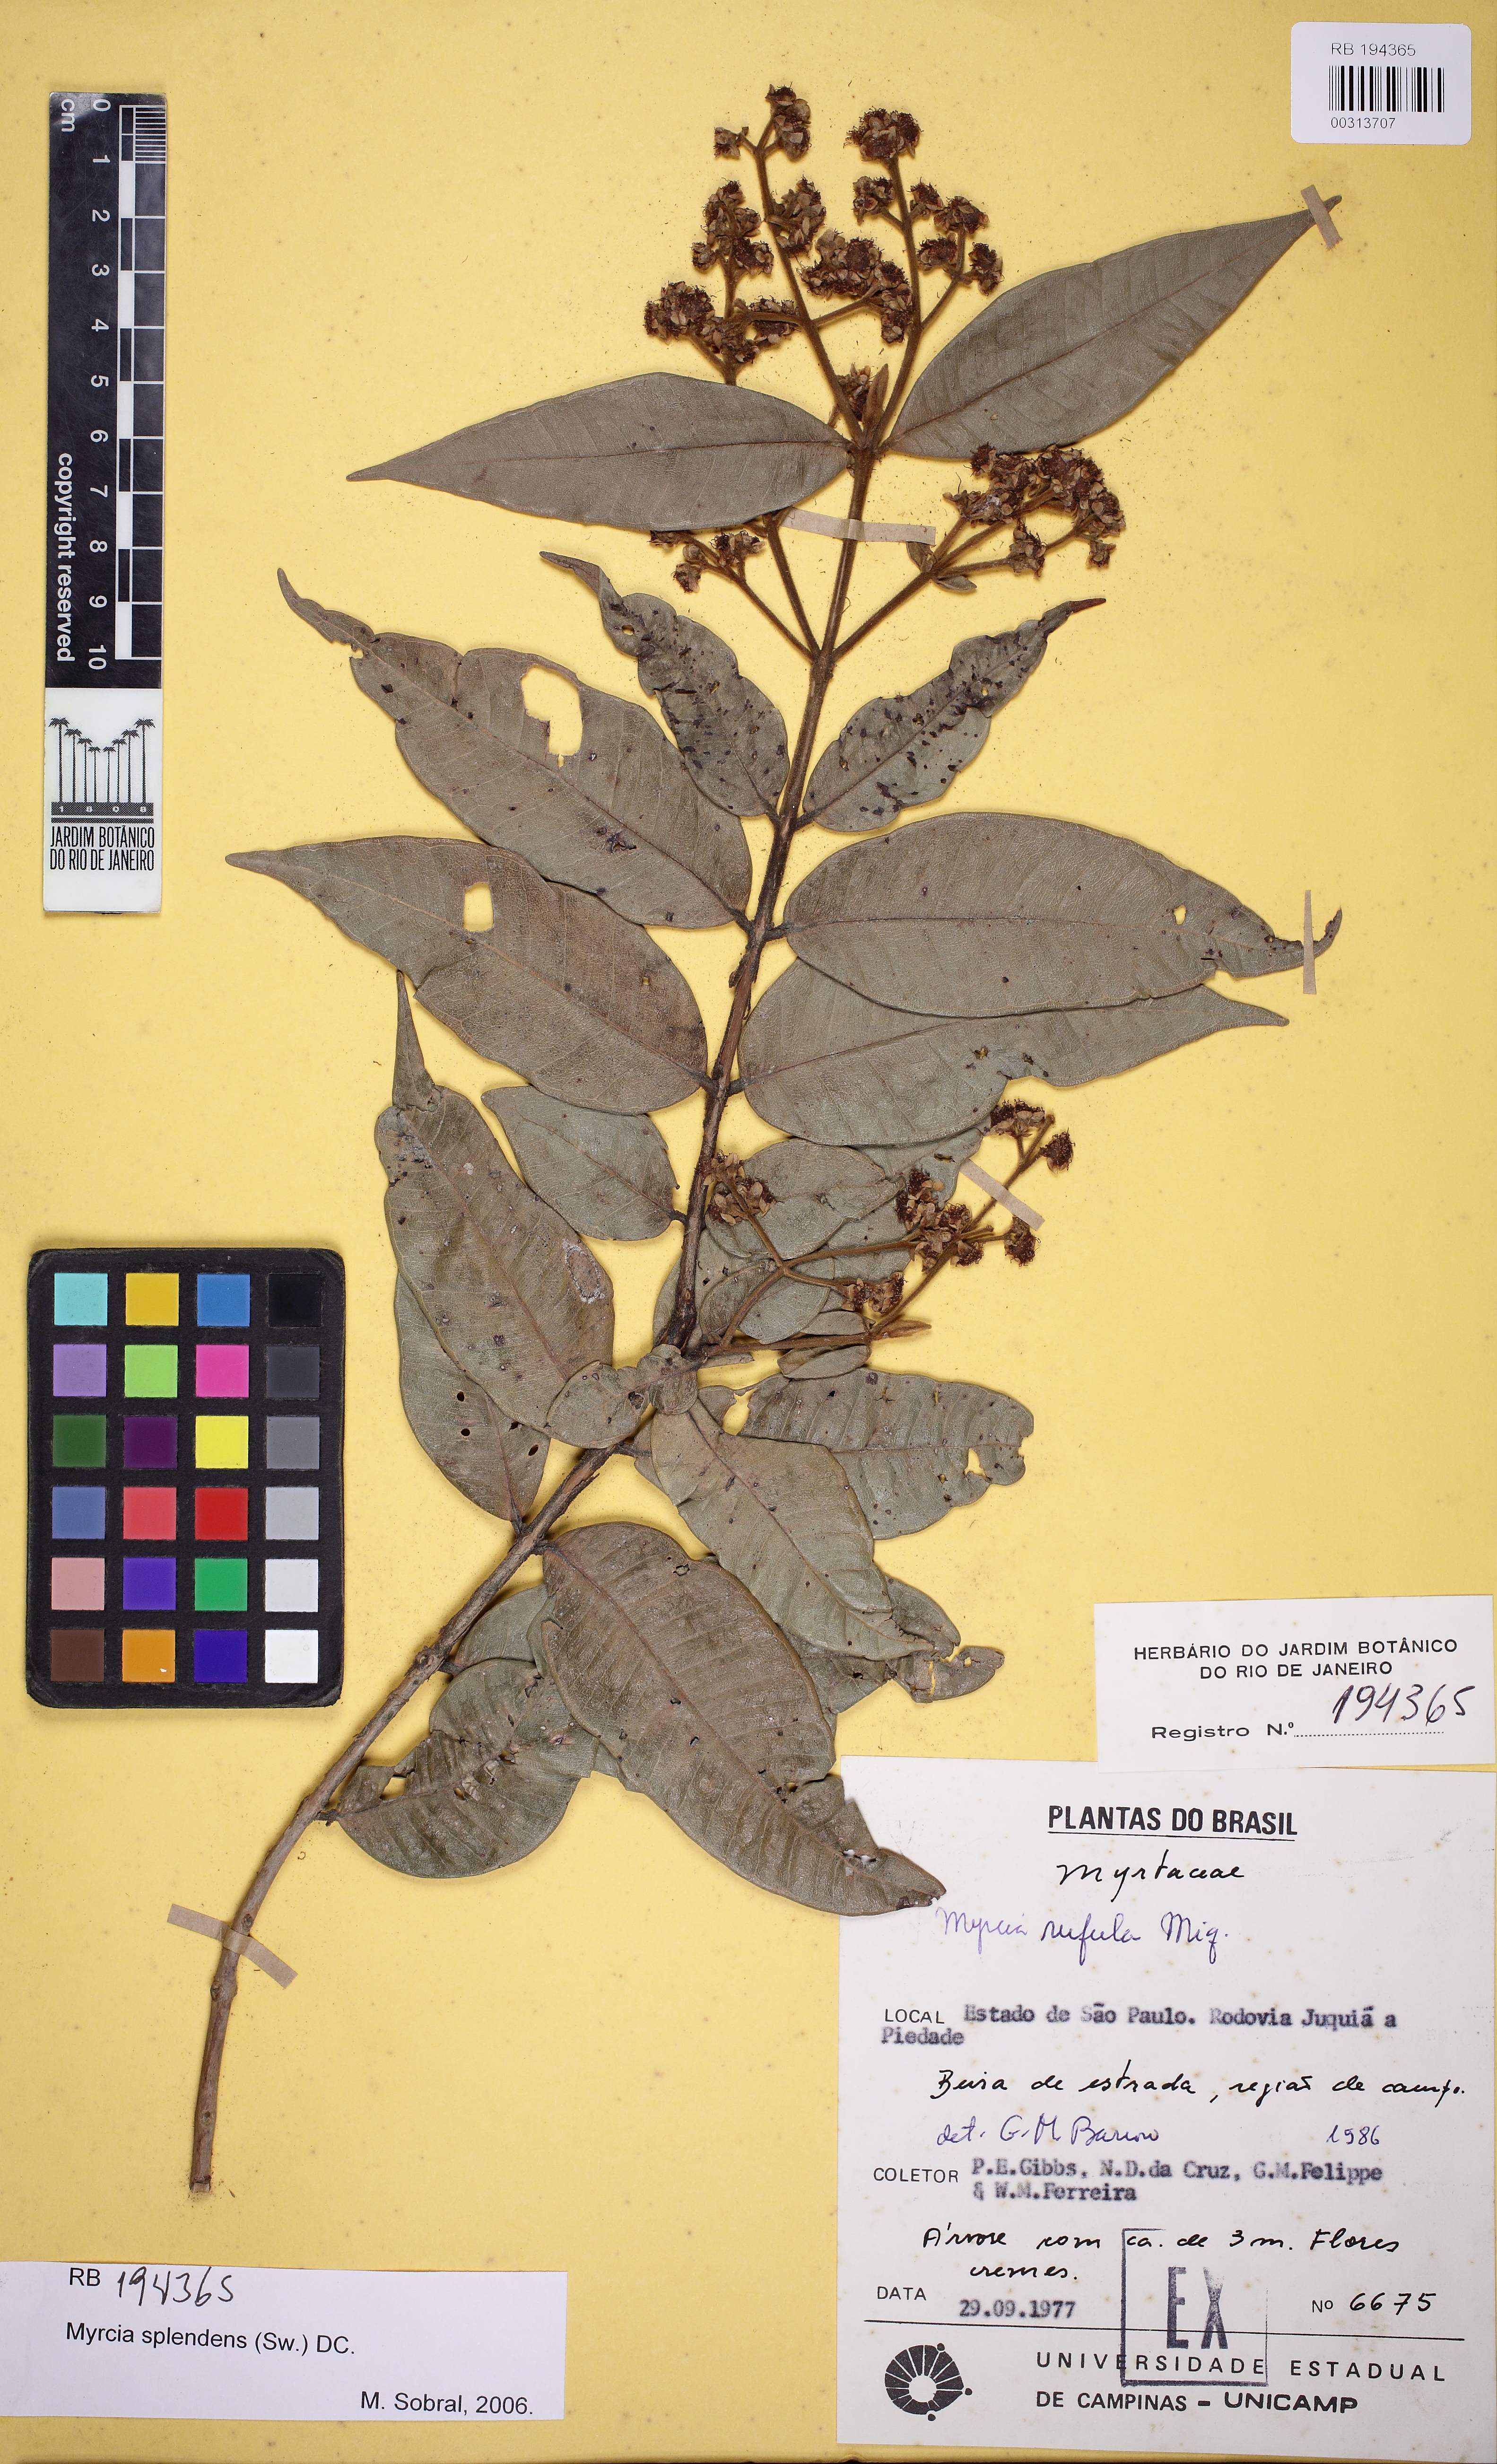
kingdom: Plantae
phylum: Tracheophyta
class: Magnoliopsida
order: Myrtales
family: Myrtaceae
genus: Myrcia
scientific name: Myrcia splendens
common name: Surinam cherry
